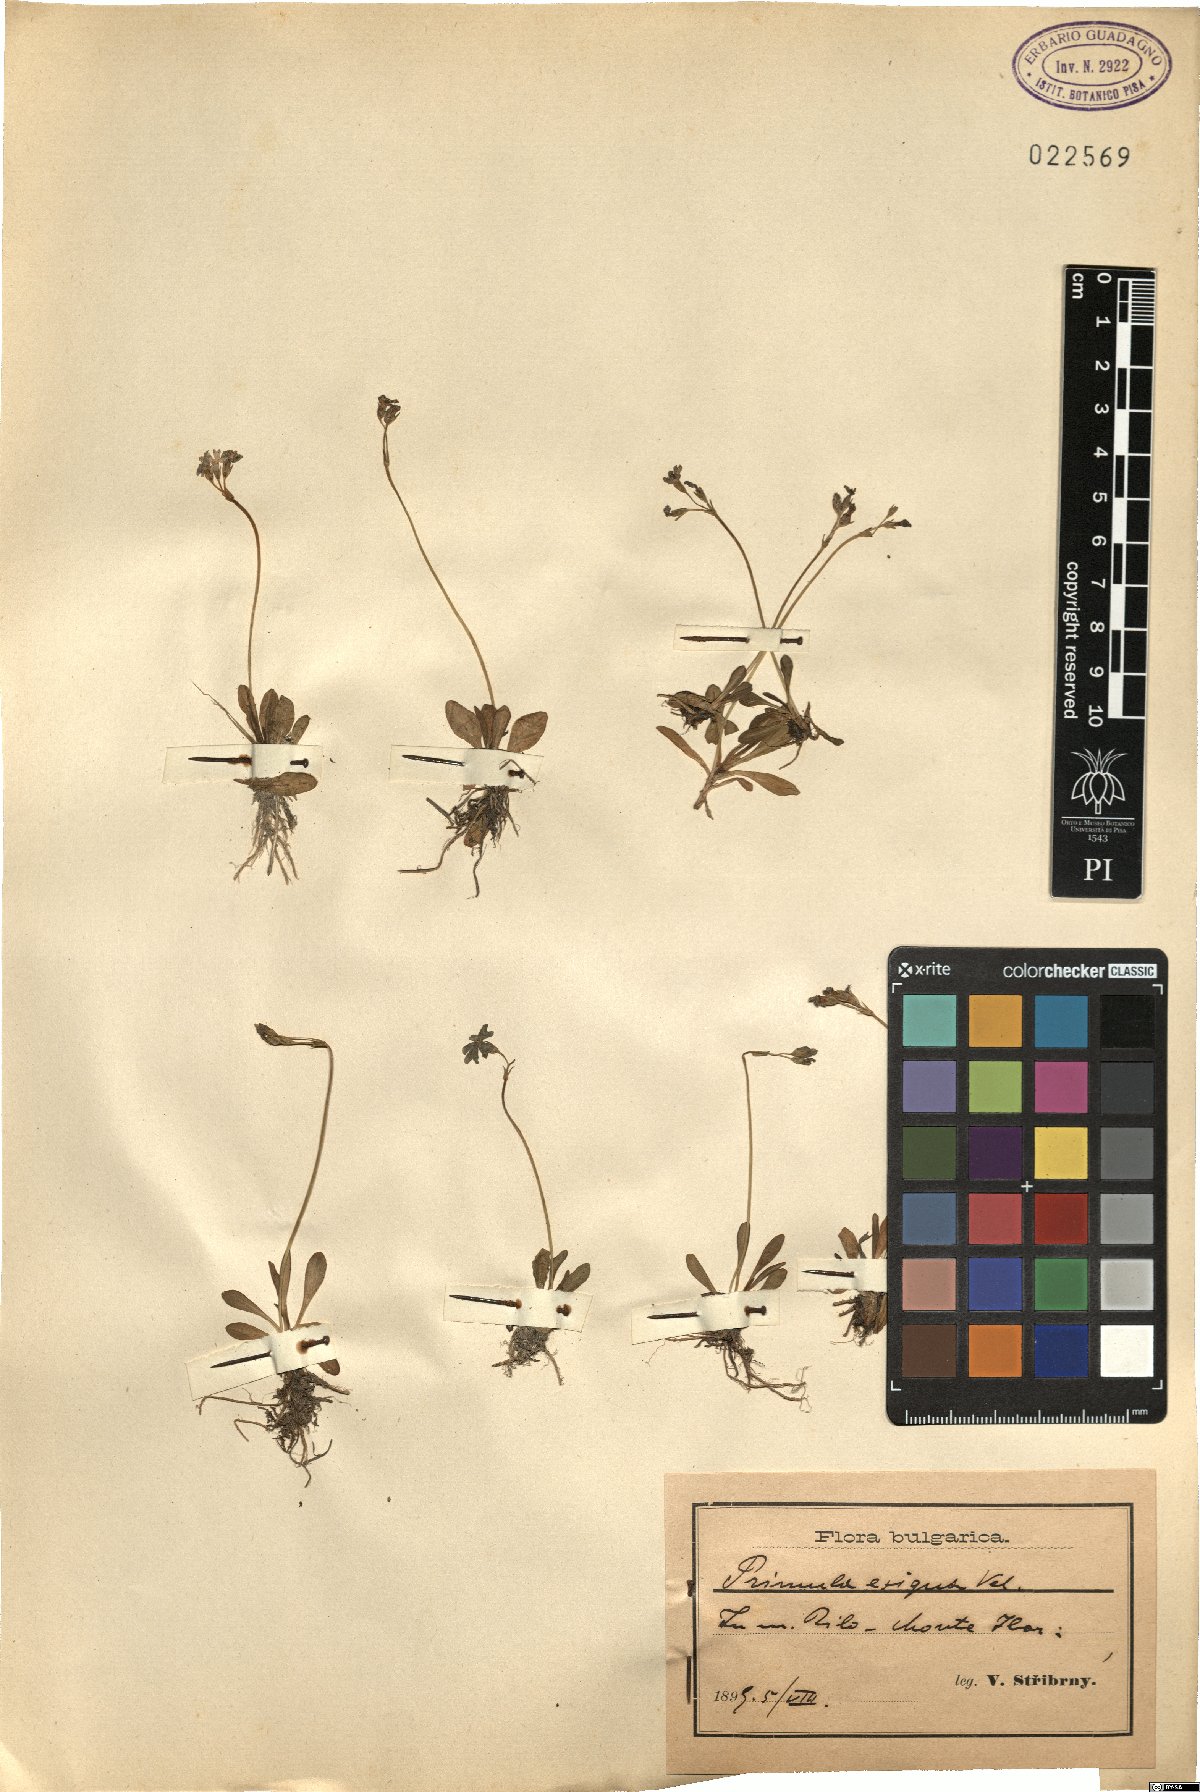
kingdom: Plantae
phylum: Tracheophyta
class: Magnoliopsida
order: Ericales
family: Primulaceae
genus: Primula
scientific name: Primula frondosa
